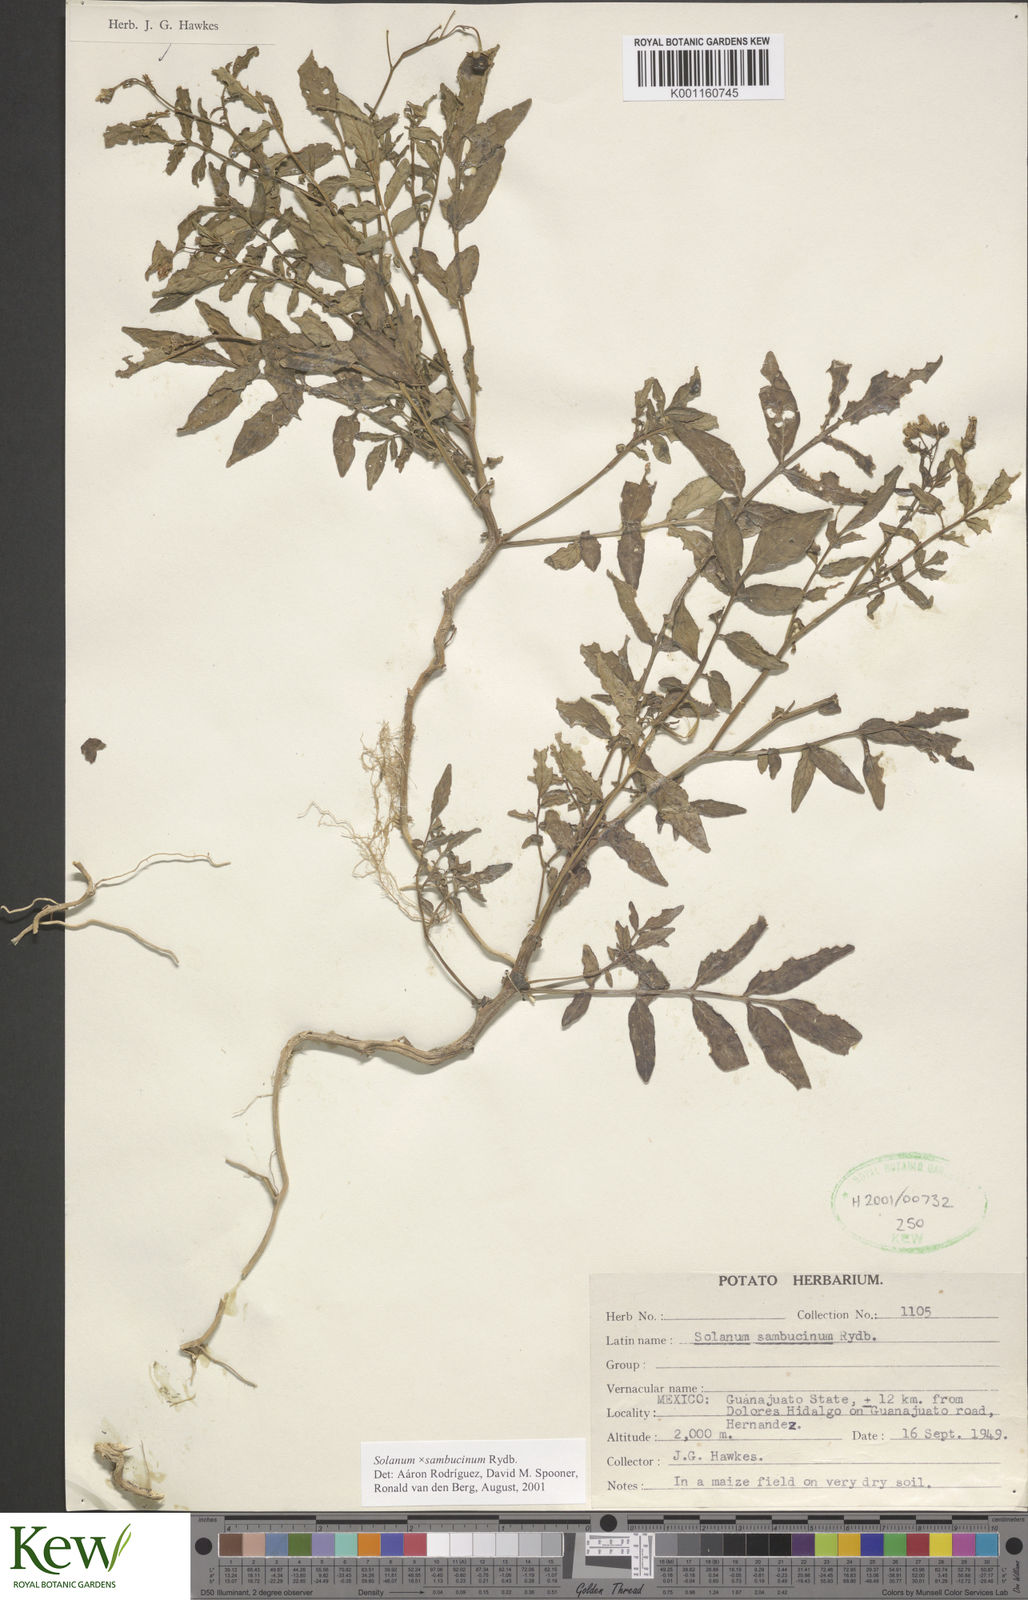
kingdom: Plantae
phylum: Tracheophyta
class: Magnoliopsida
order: Solanales
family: Solanaceae
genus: Solanum
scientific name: Solanum sambucinum
